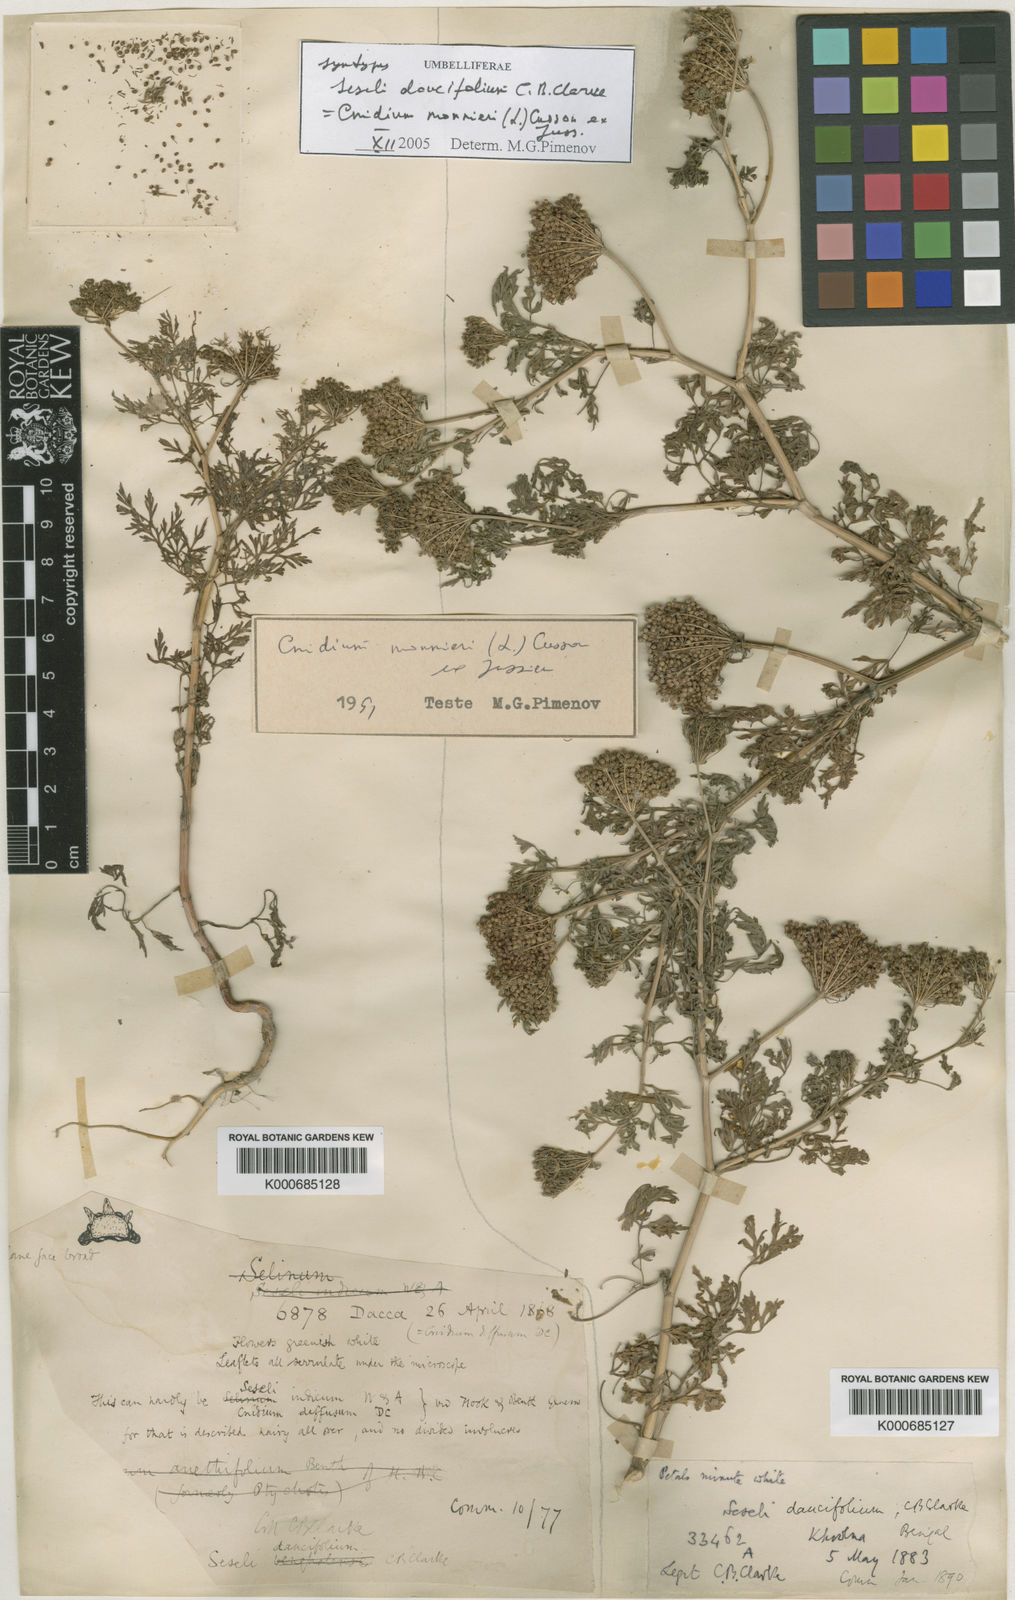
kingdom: Plantae
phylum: Tracheophyta
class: Magnoliopsida
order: Apiales
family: Apiaceae
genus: Cnidium
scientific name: Cnidium monnieri
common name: Monnier's snowparsley
